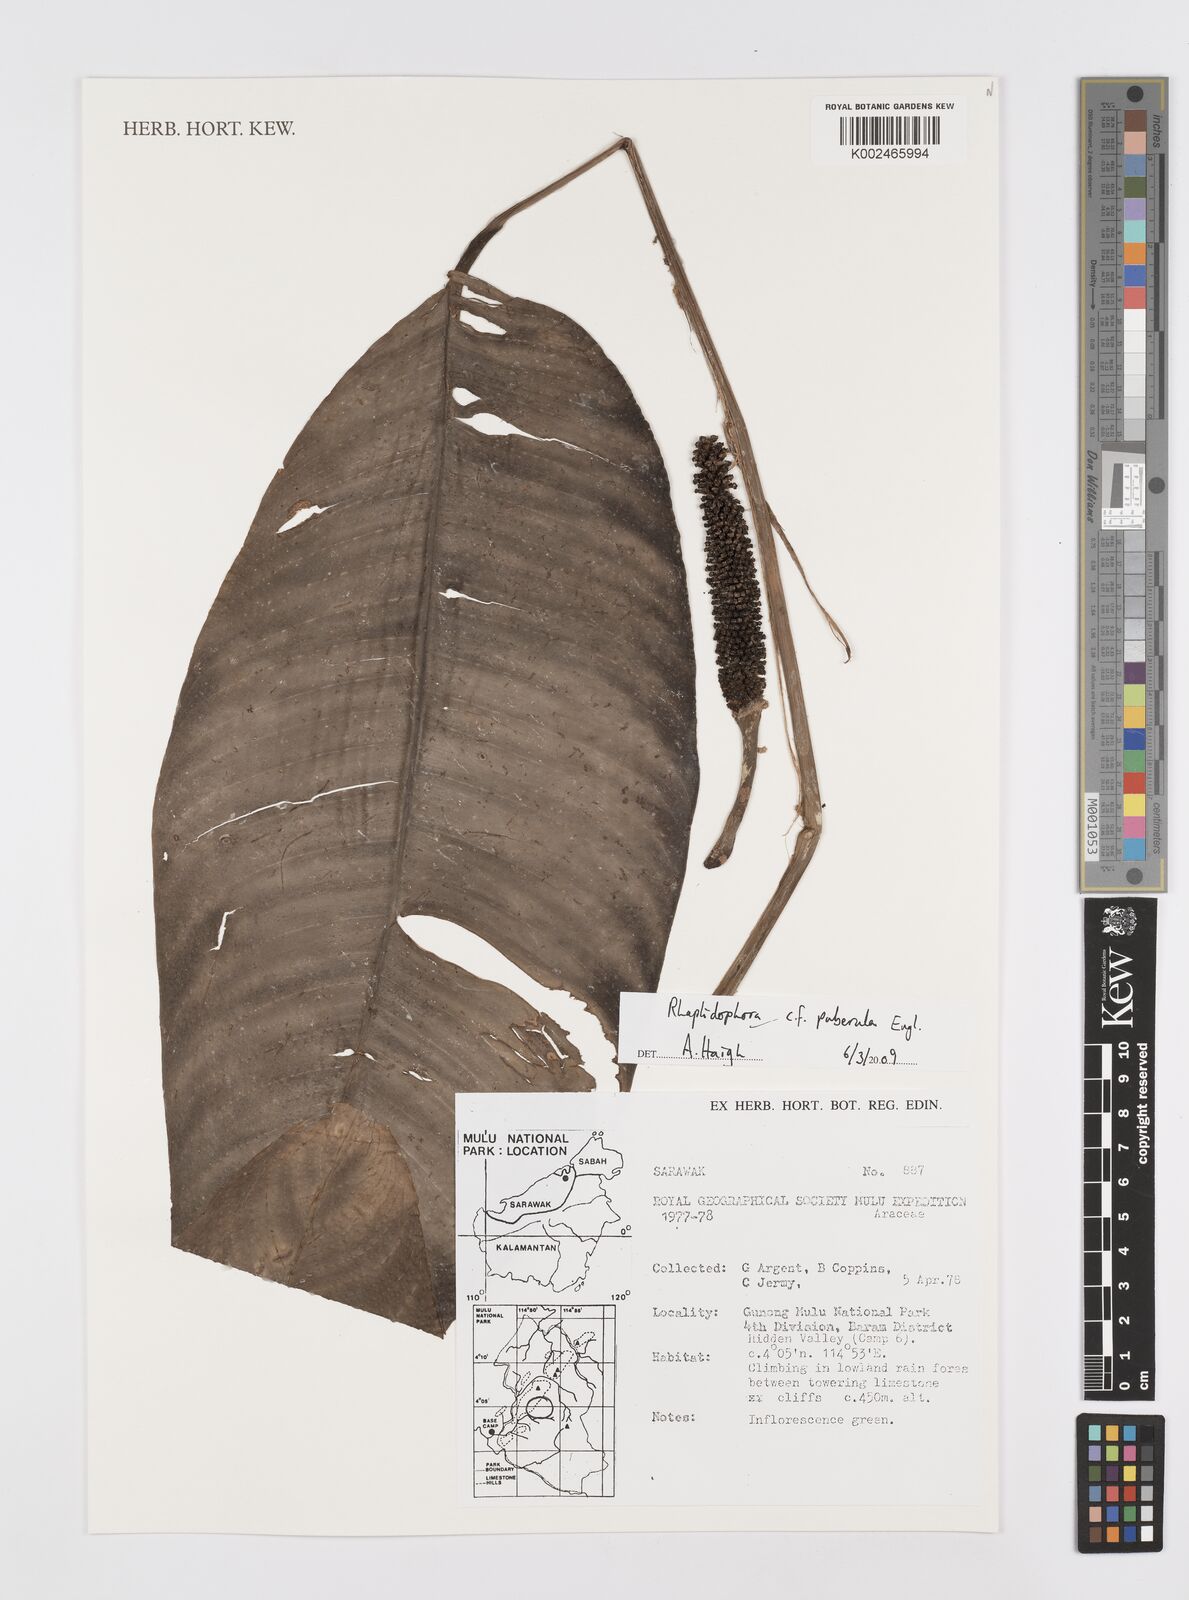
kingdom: Plantae
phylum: Tracheophyta
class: Liliopsida
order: Alismatales
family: Araceae
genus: Rhaphidophora
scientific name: Rhaphidophora puberula
